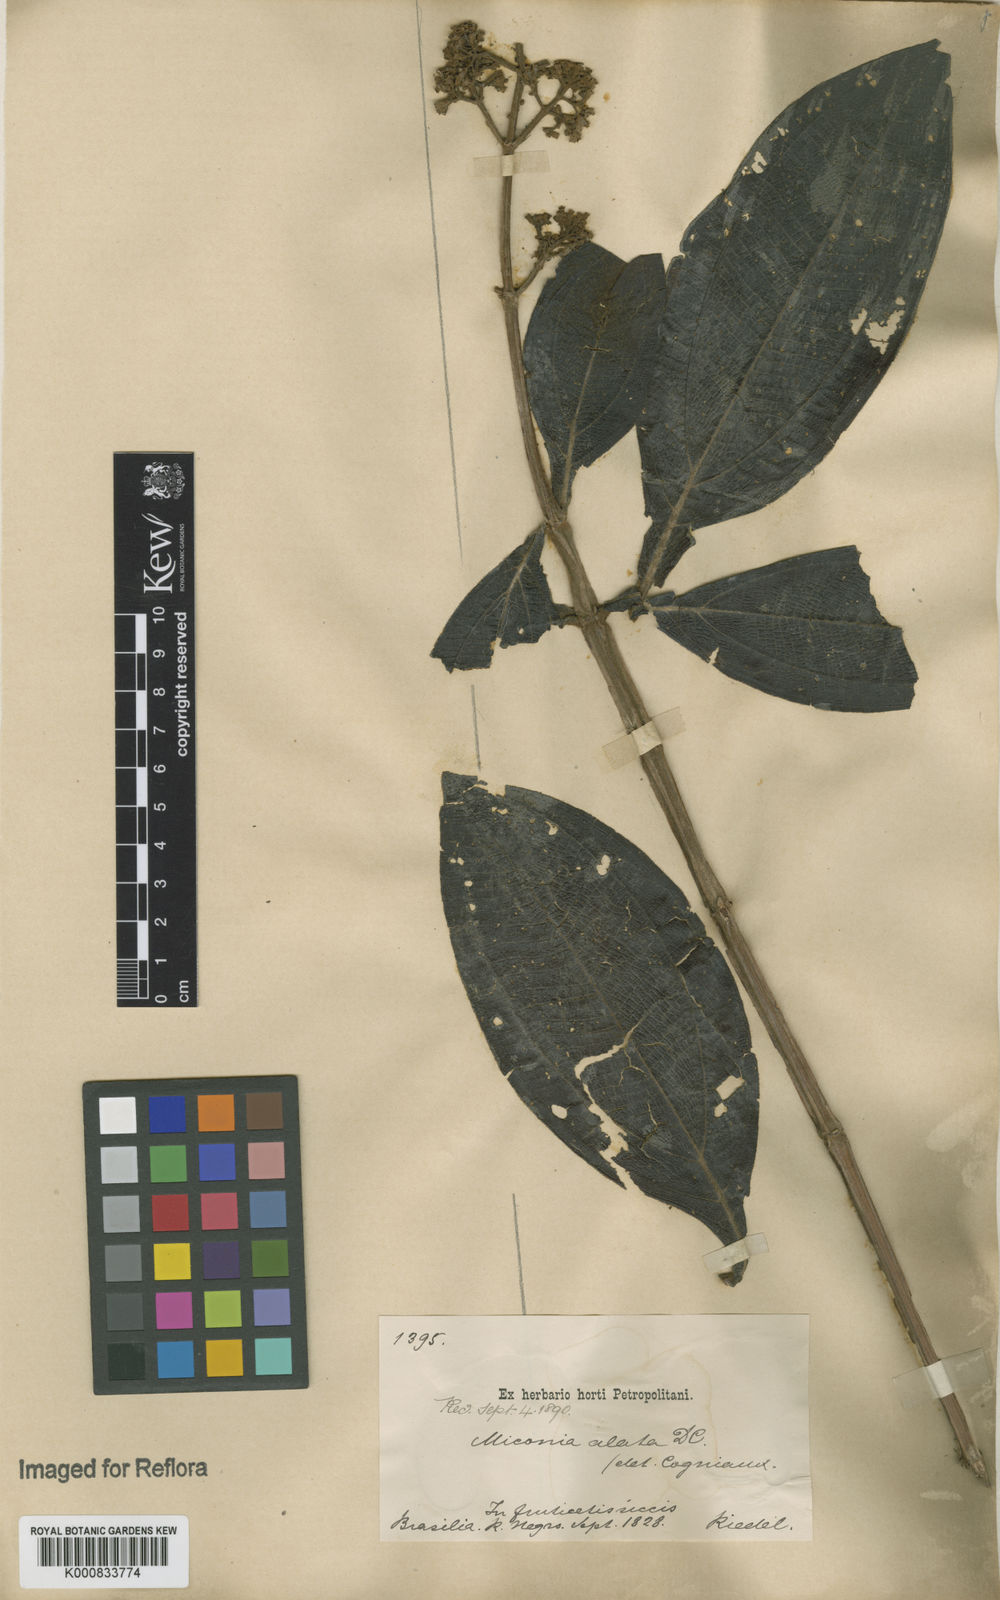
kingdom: Plantae
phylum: Tracheophyta
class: Magnoliopsida
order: Myrtales
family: Melastomataceae
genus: Miconia
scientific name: Miconia alata
